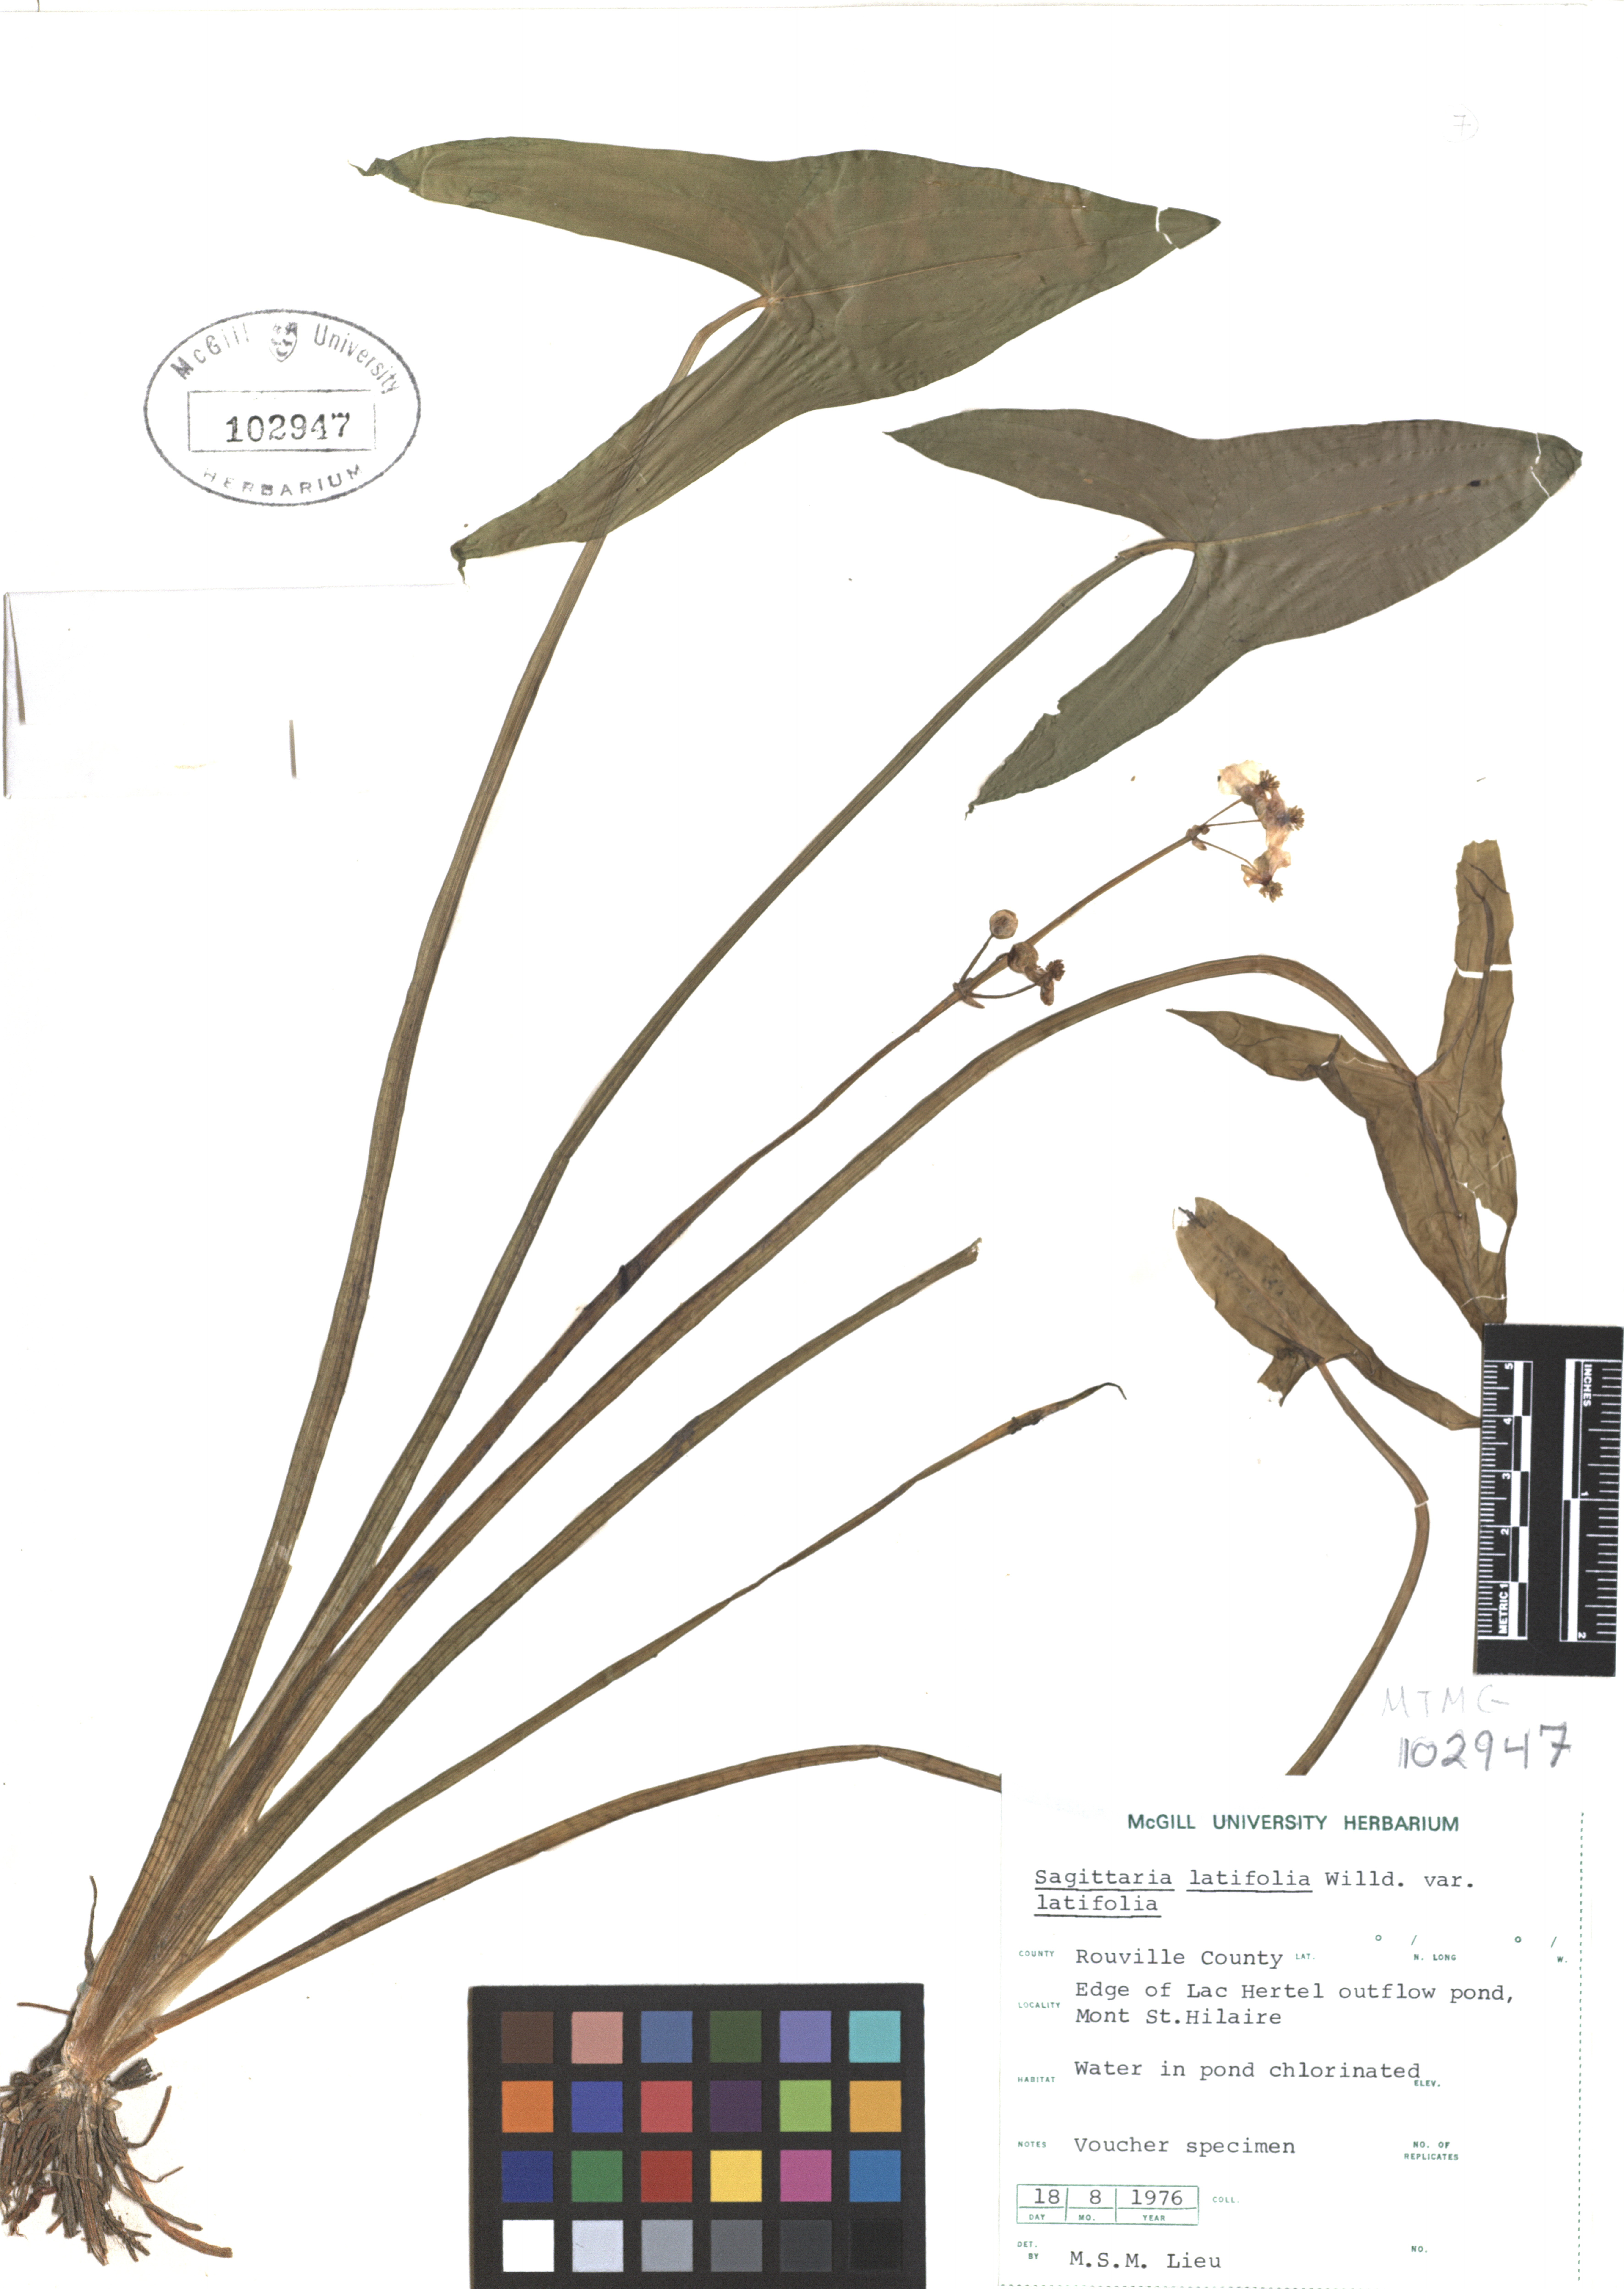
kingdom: Plantae
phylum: Tracheophyta
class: Liliopsida
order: Alismatales
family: Alismataceae
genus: Sagittaria
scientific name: Sagittaria latifolia
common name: Duck-potato
